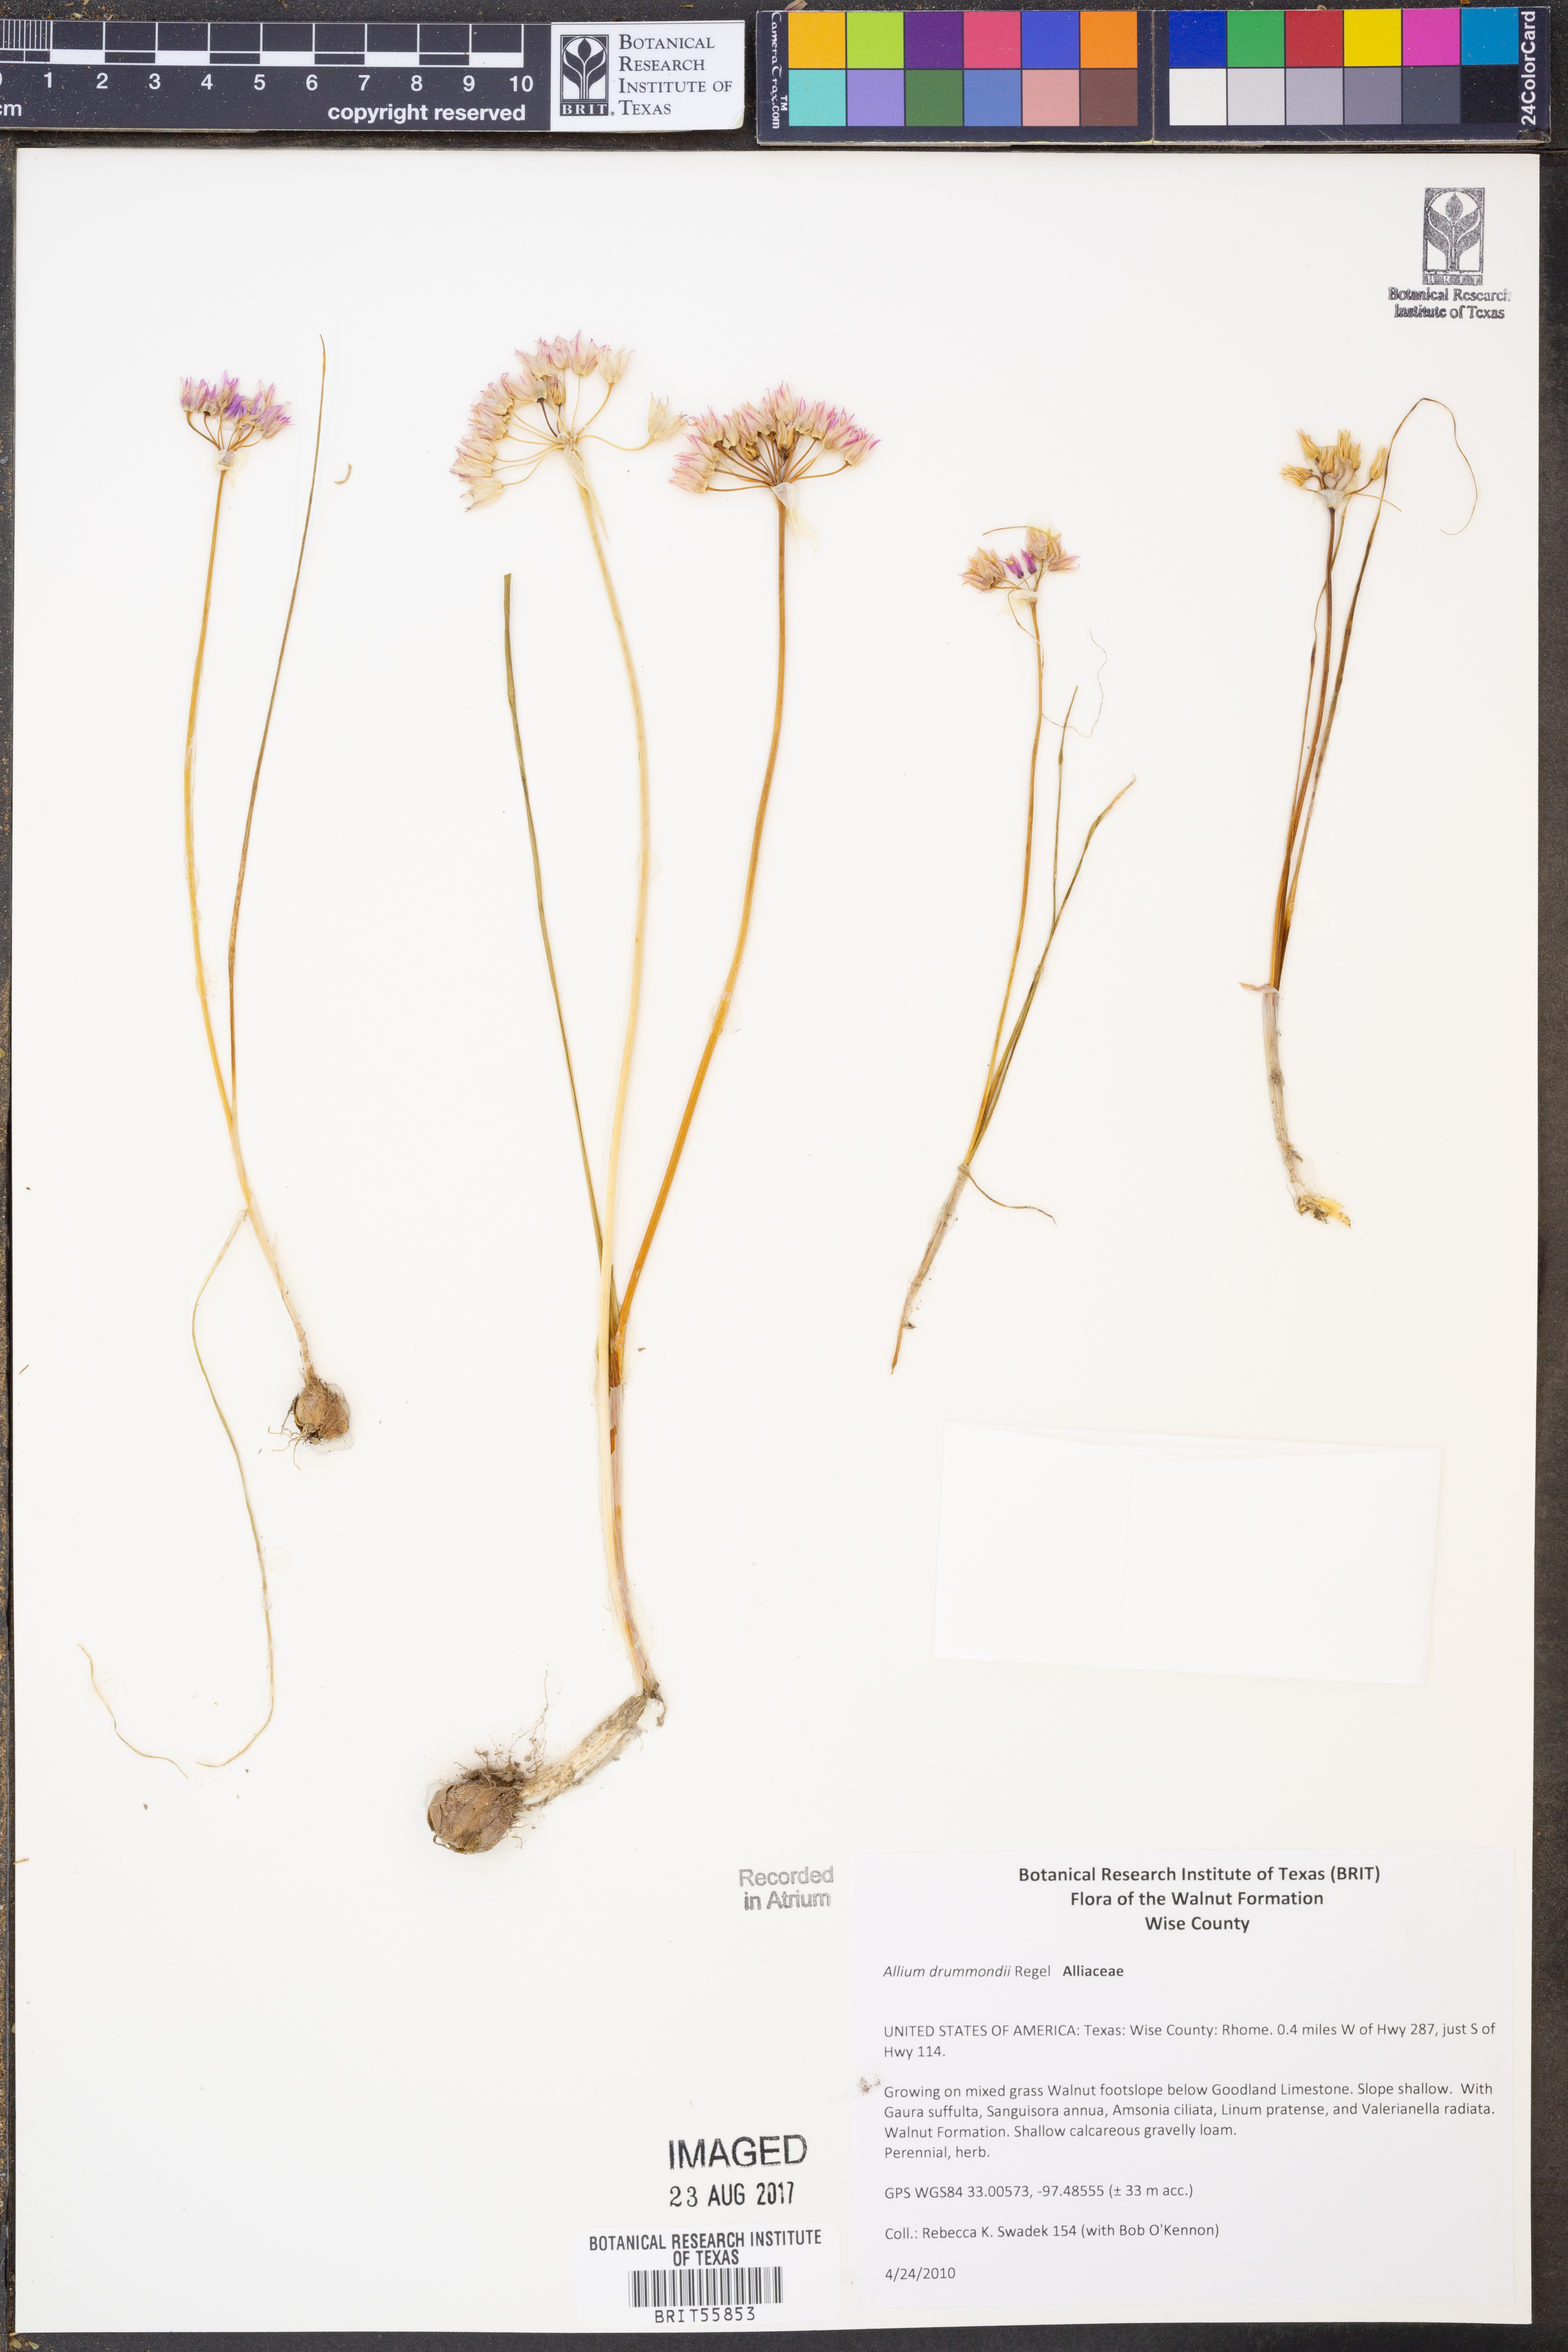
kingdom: Plantae
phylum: Tracheophyta
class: Liliopsida
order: Asparagales
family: Amaryllidaceae
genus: Allium
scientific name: Allium drummondii
